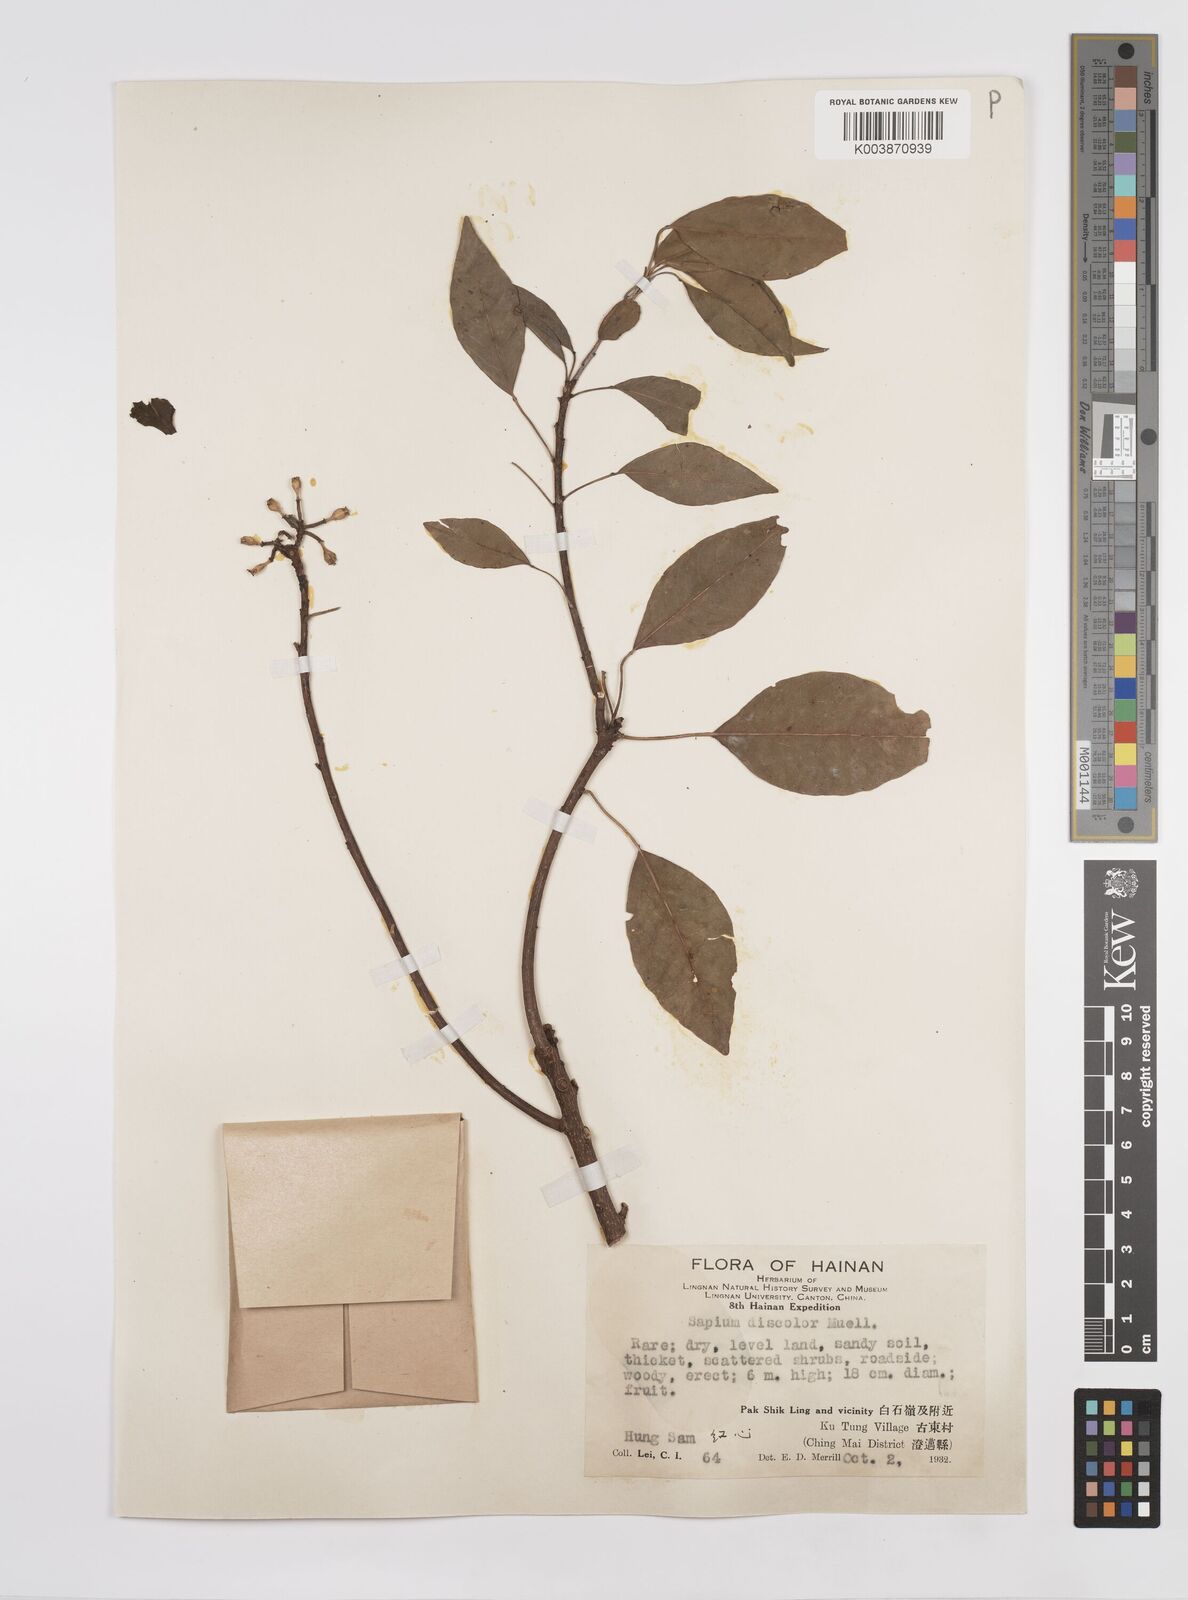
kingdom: Plantae
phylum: Tracheophyta
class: Magnoliopsida
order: Malpighiales
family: Euphorbiaceae
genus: Triadica
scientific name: Triadica cochinchinensis
